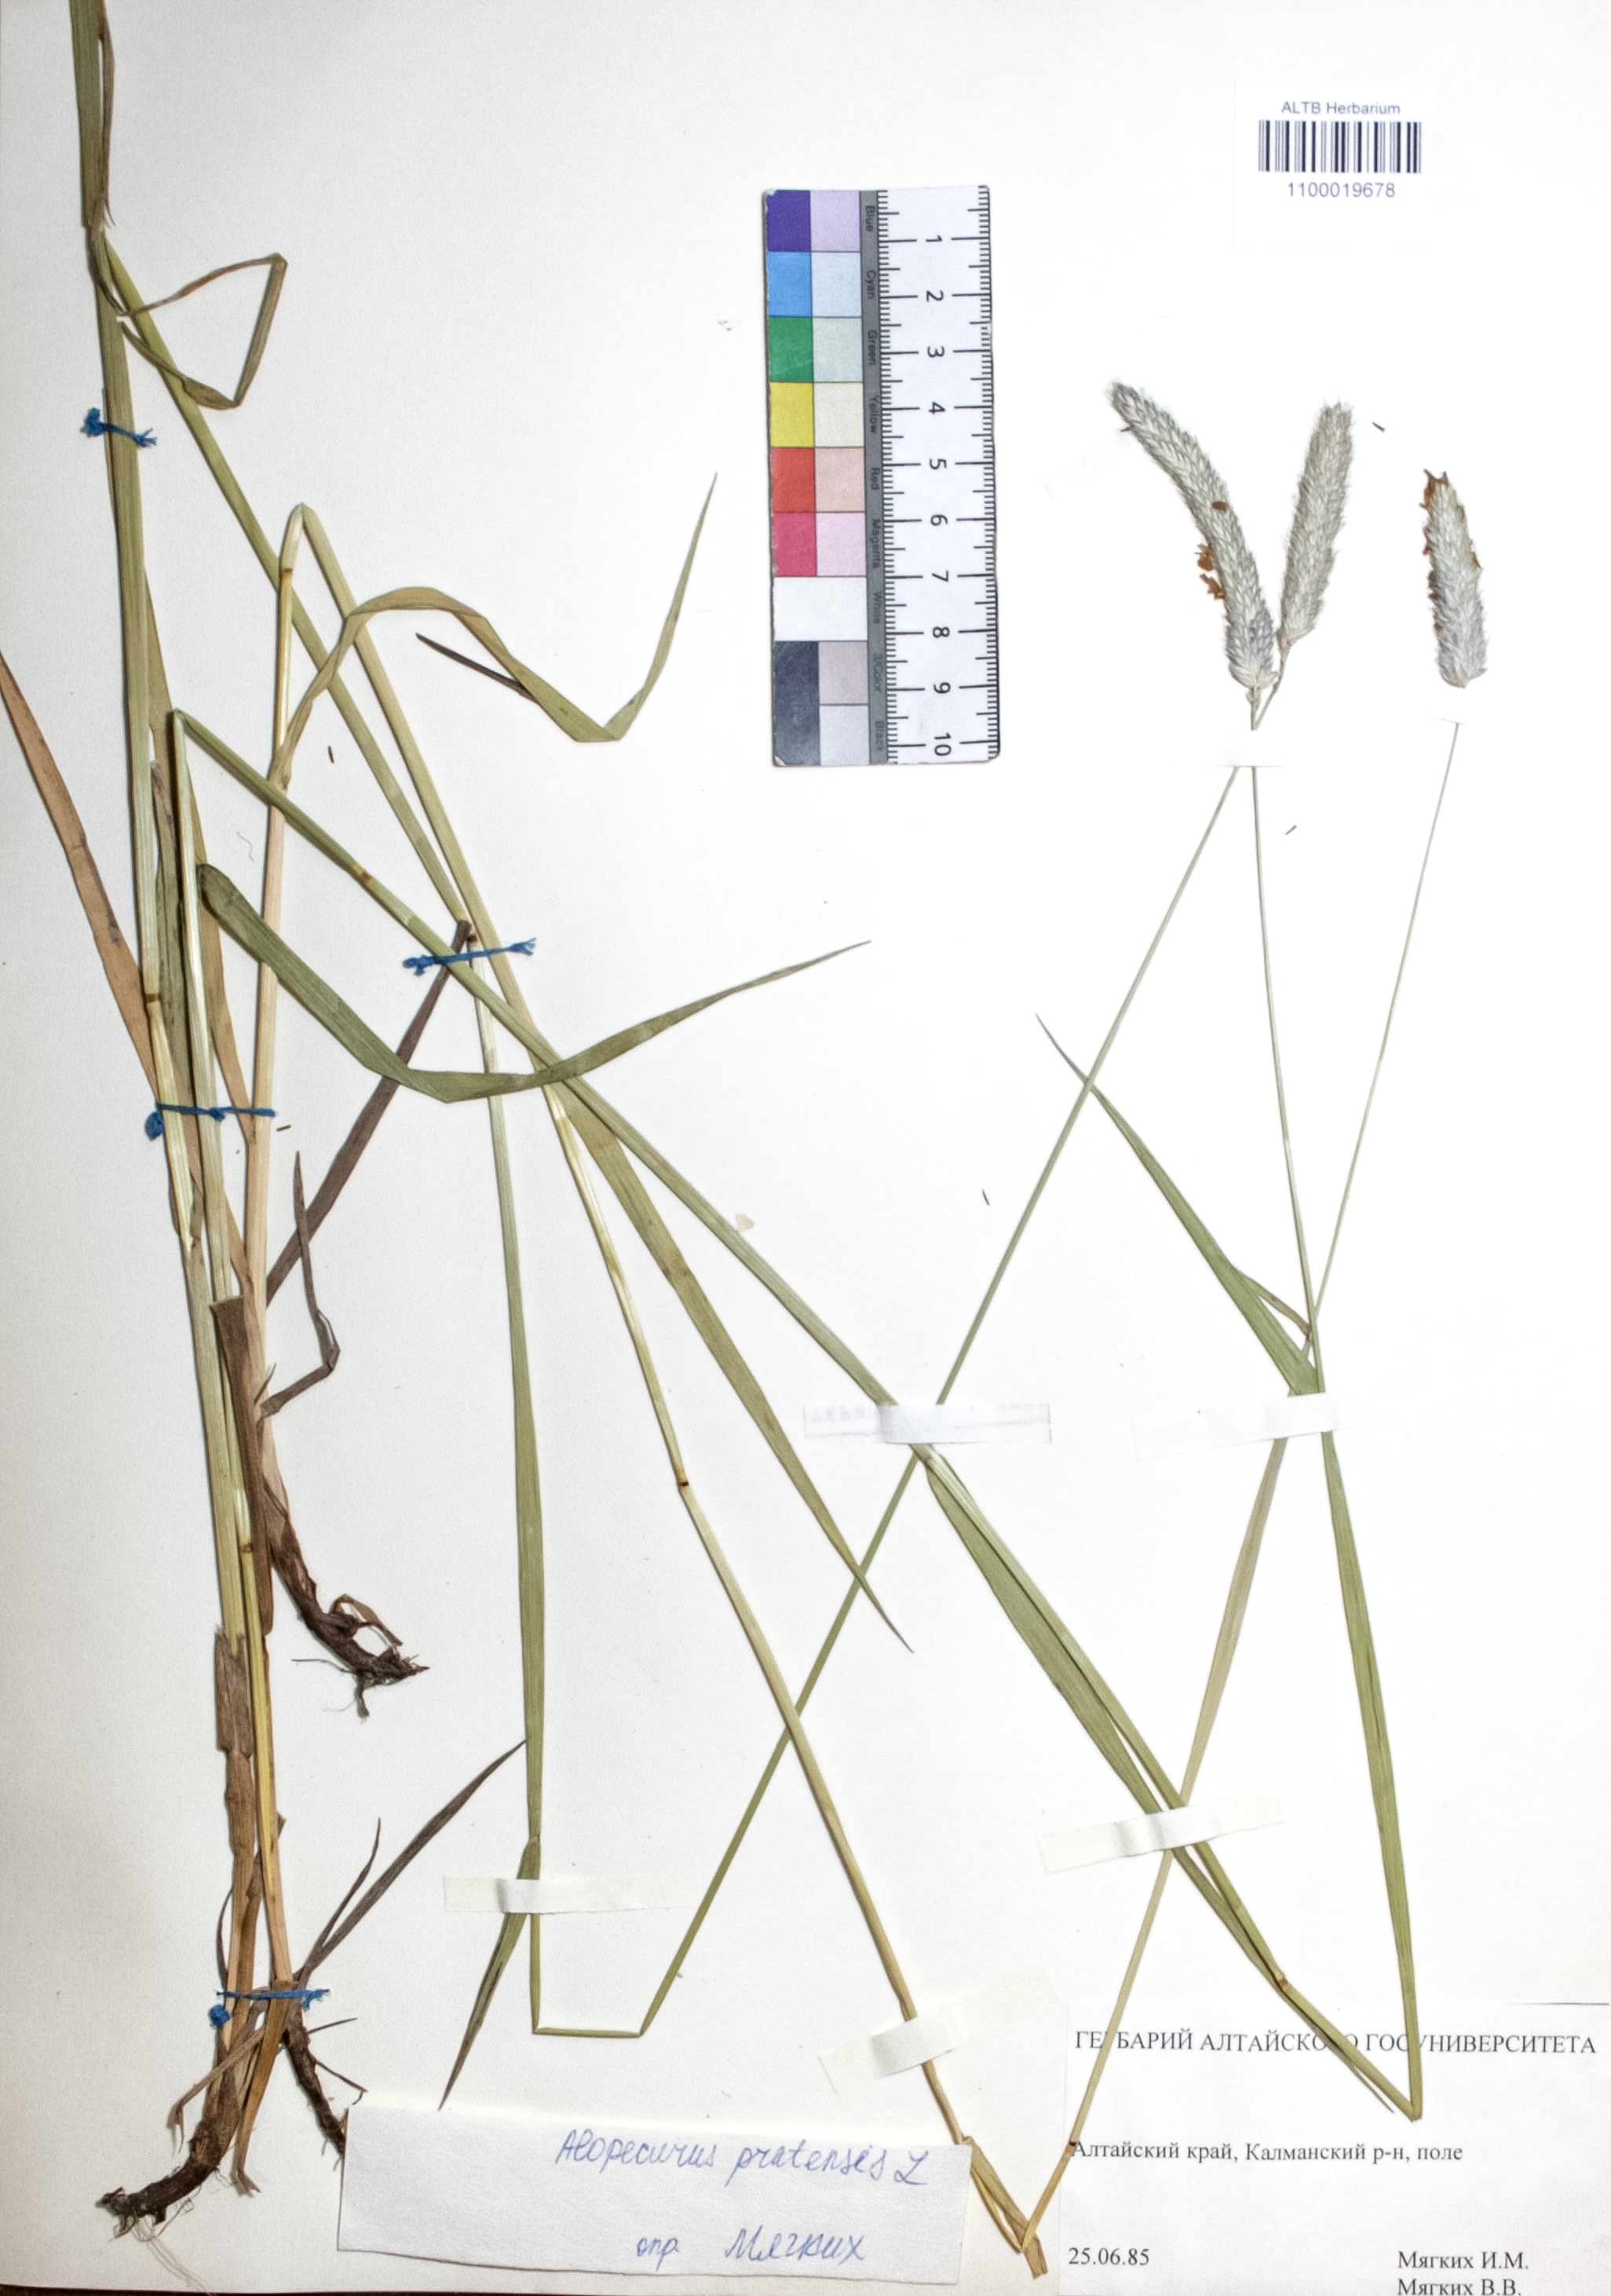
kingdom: Plantae
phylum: Tracheophyta
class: Liliopsida
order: Poales
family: Poaceae
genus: Alopecurus
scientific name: Alopecurus pratensis
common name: Meadow foxtail
